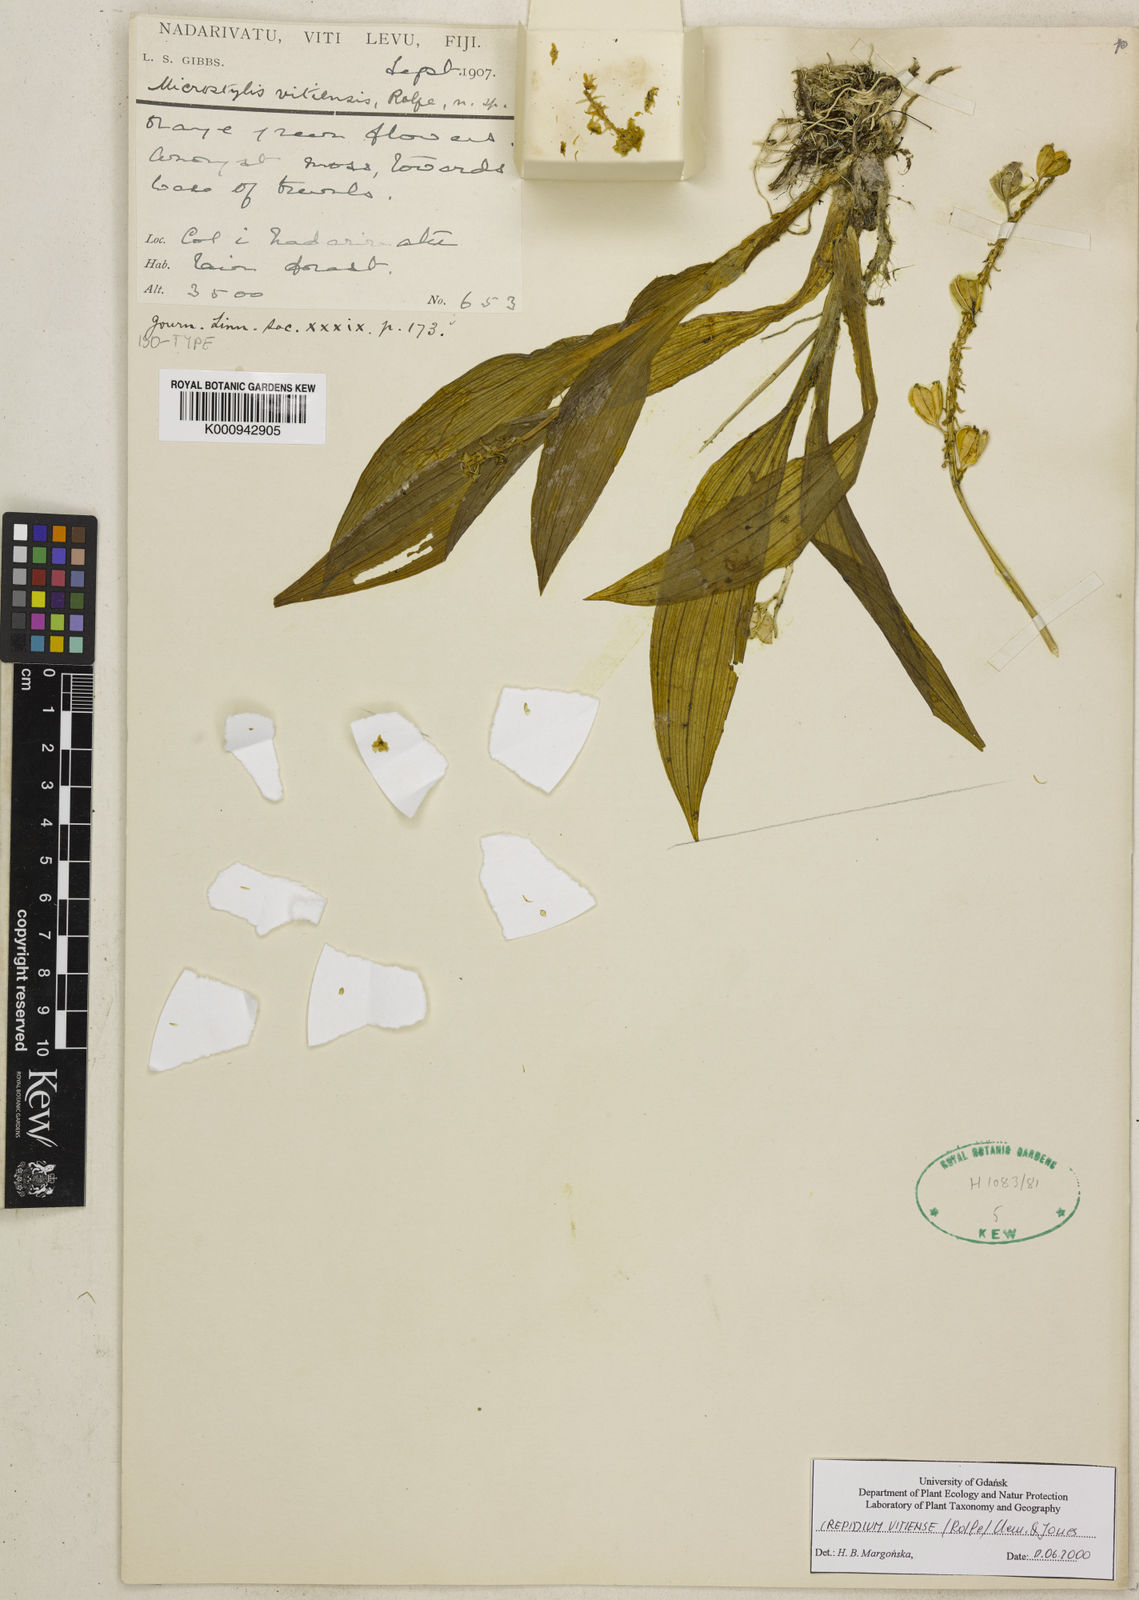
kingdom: Plantae
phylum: Tracheophyta
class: Liliopsida
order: Asparagales
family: Orchidaceae
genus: Crepidium
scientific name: Crepidium vitiense
